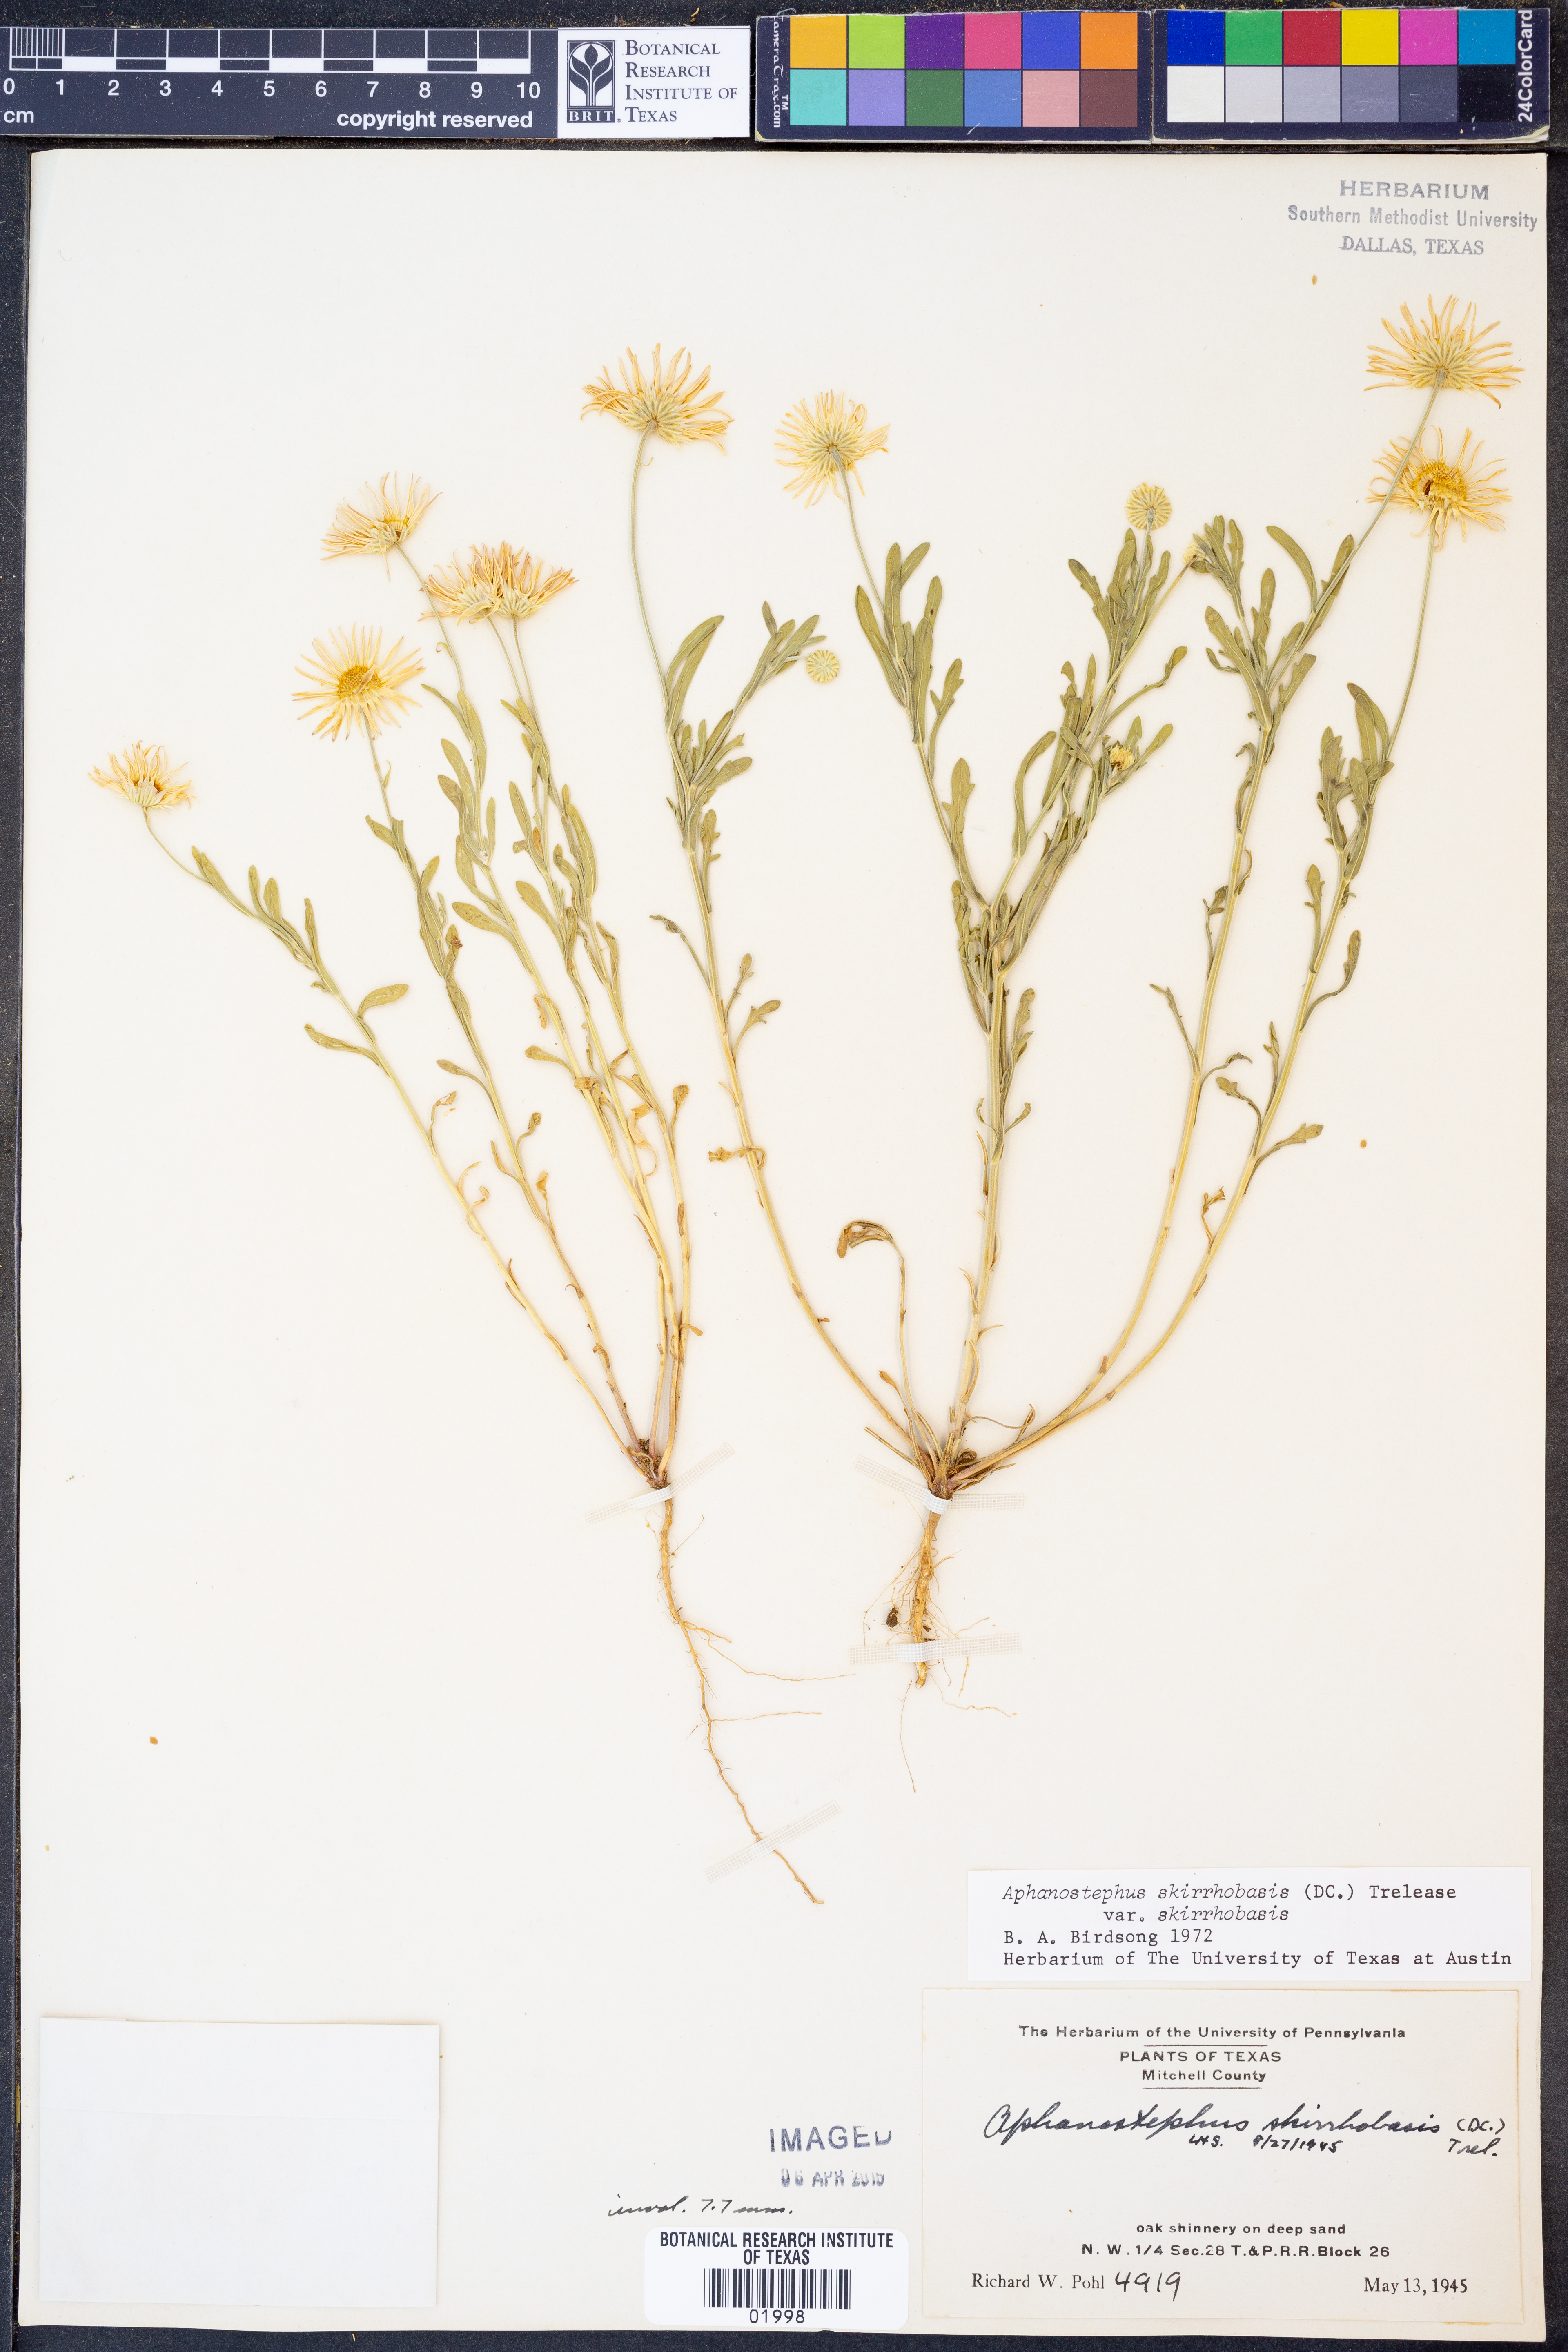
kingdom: Plantae
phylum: Tracheophyta
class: Magnoliopsida
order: Asterales
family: Asteraceae
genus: Aphanostephus
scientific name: Aphanostephus skirrhobasis
